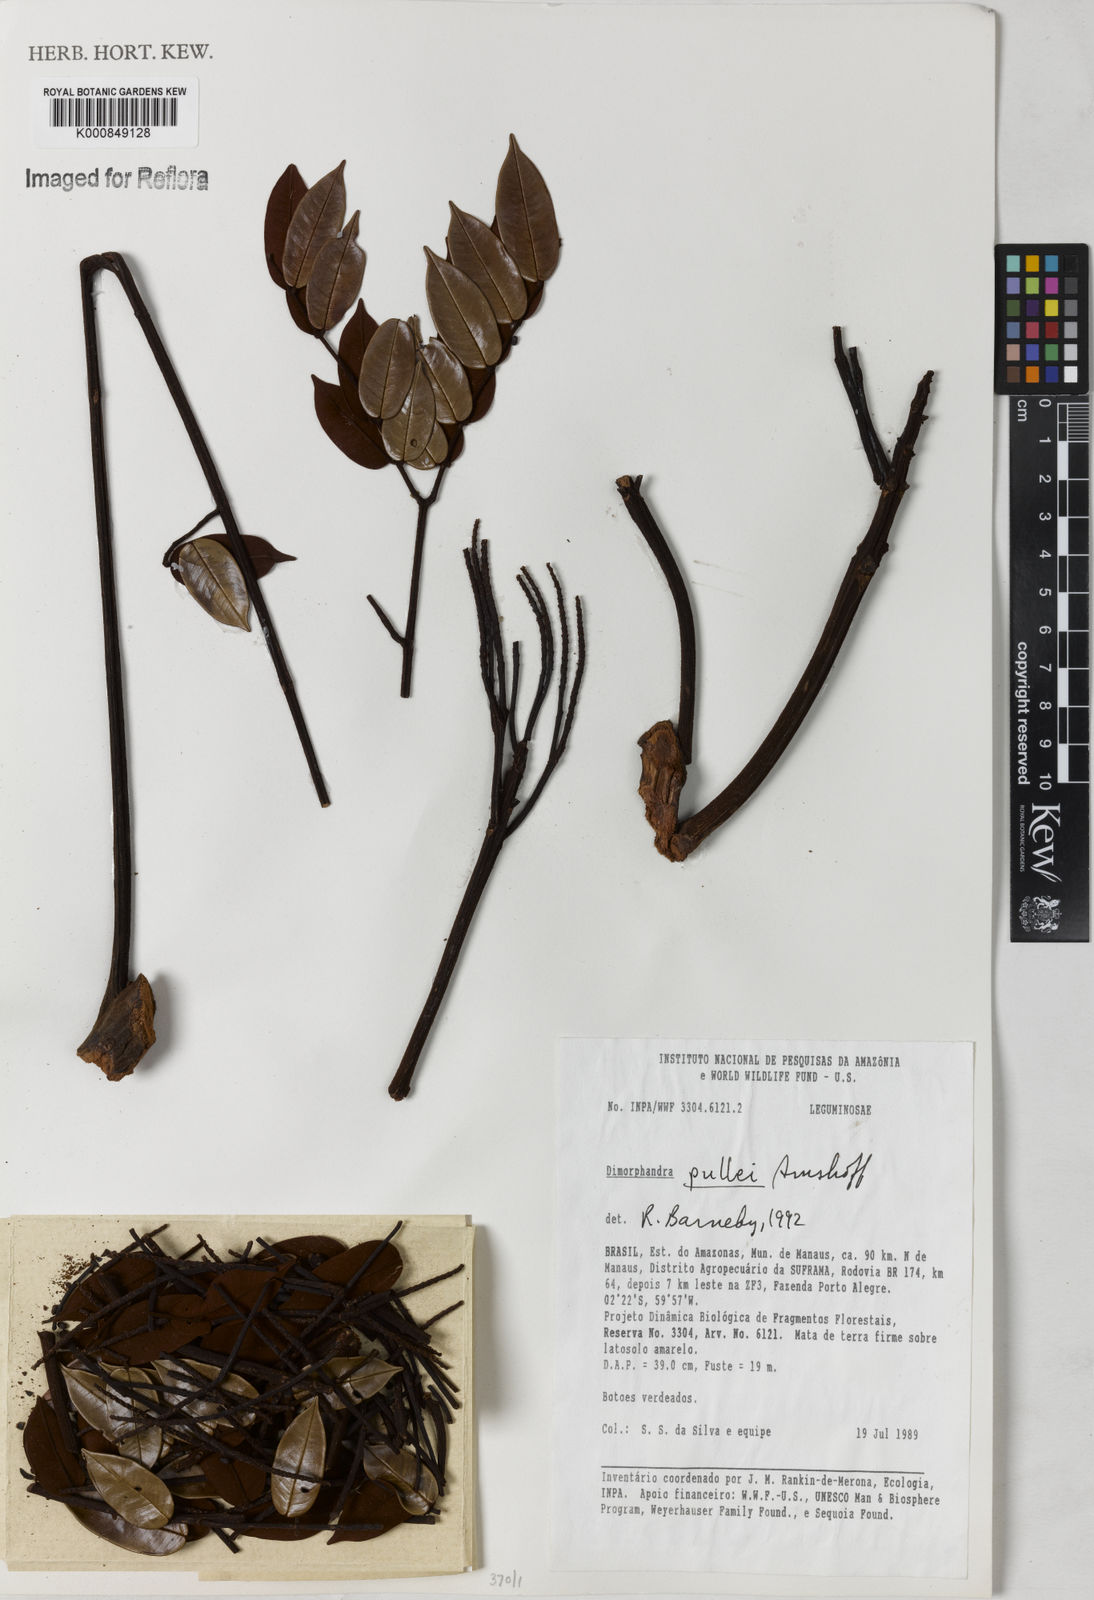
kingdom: Plantae
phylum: Tracheophyta
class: Magnoliopsida
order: Fabales
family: Fabaceae
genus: Dimorphandra
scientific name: Dimorphandra pullei
